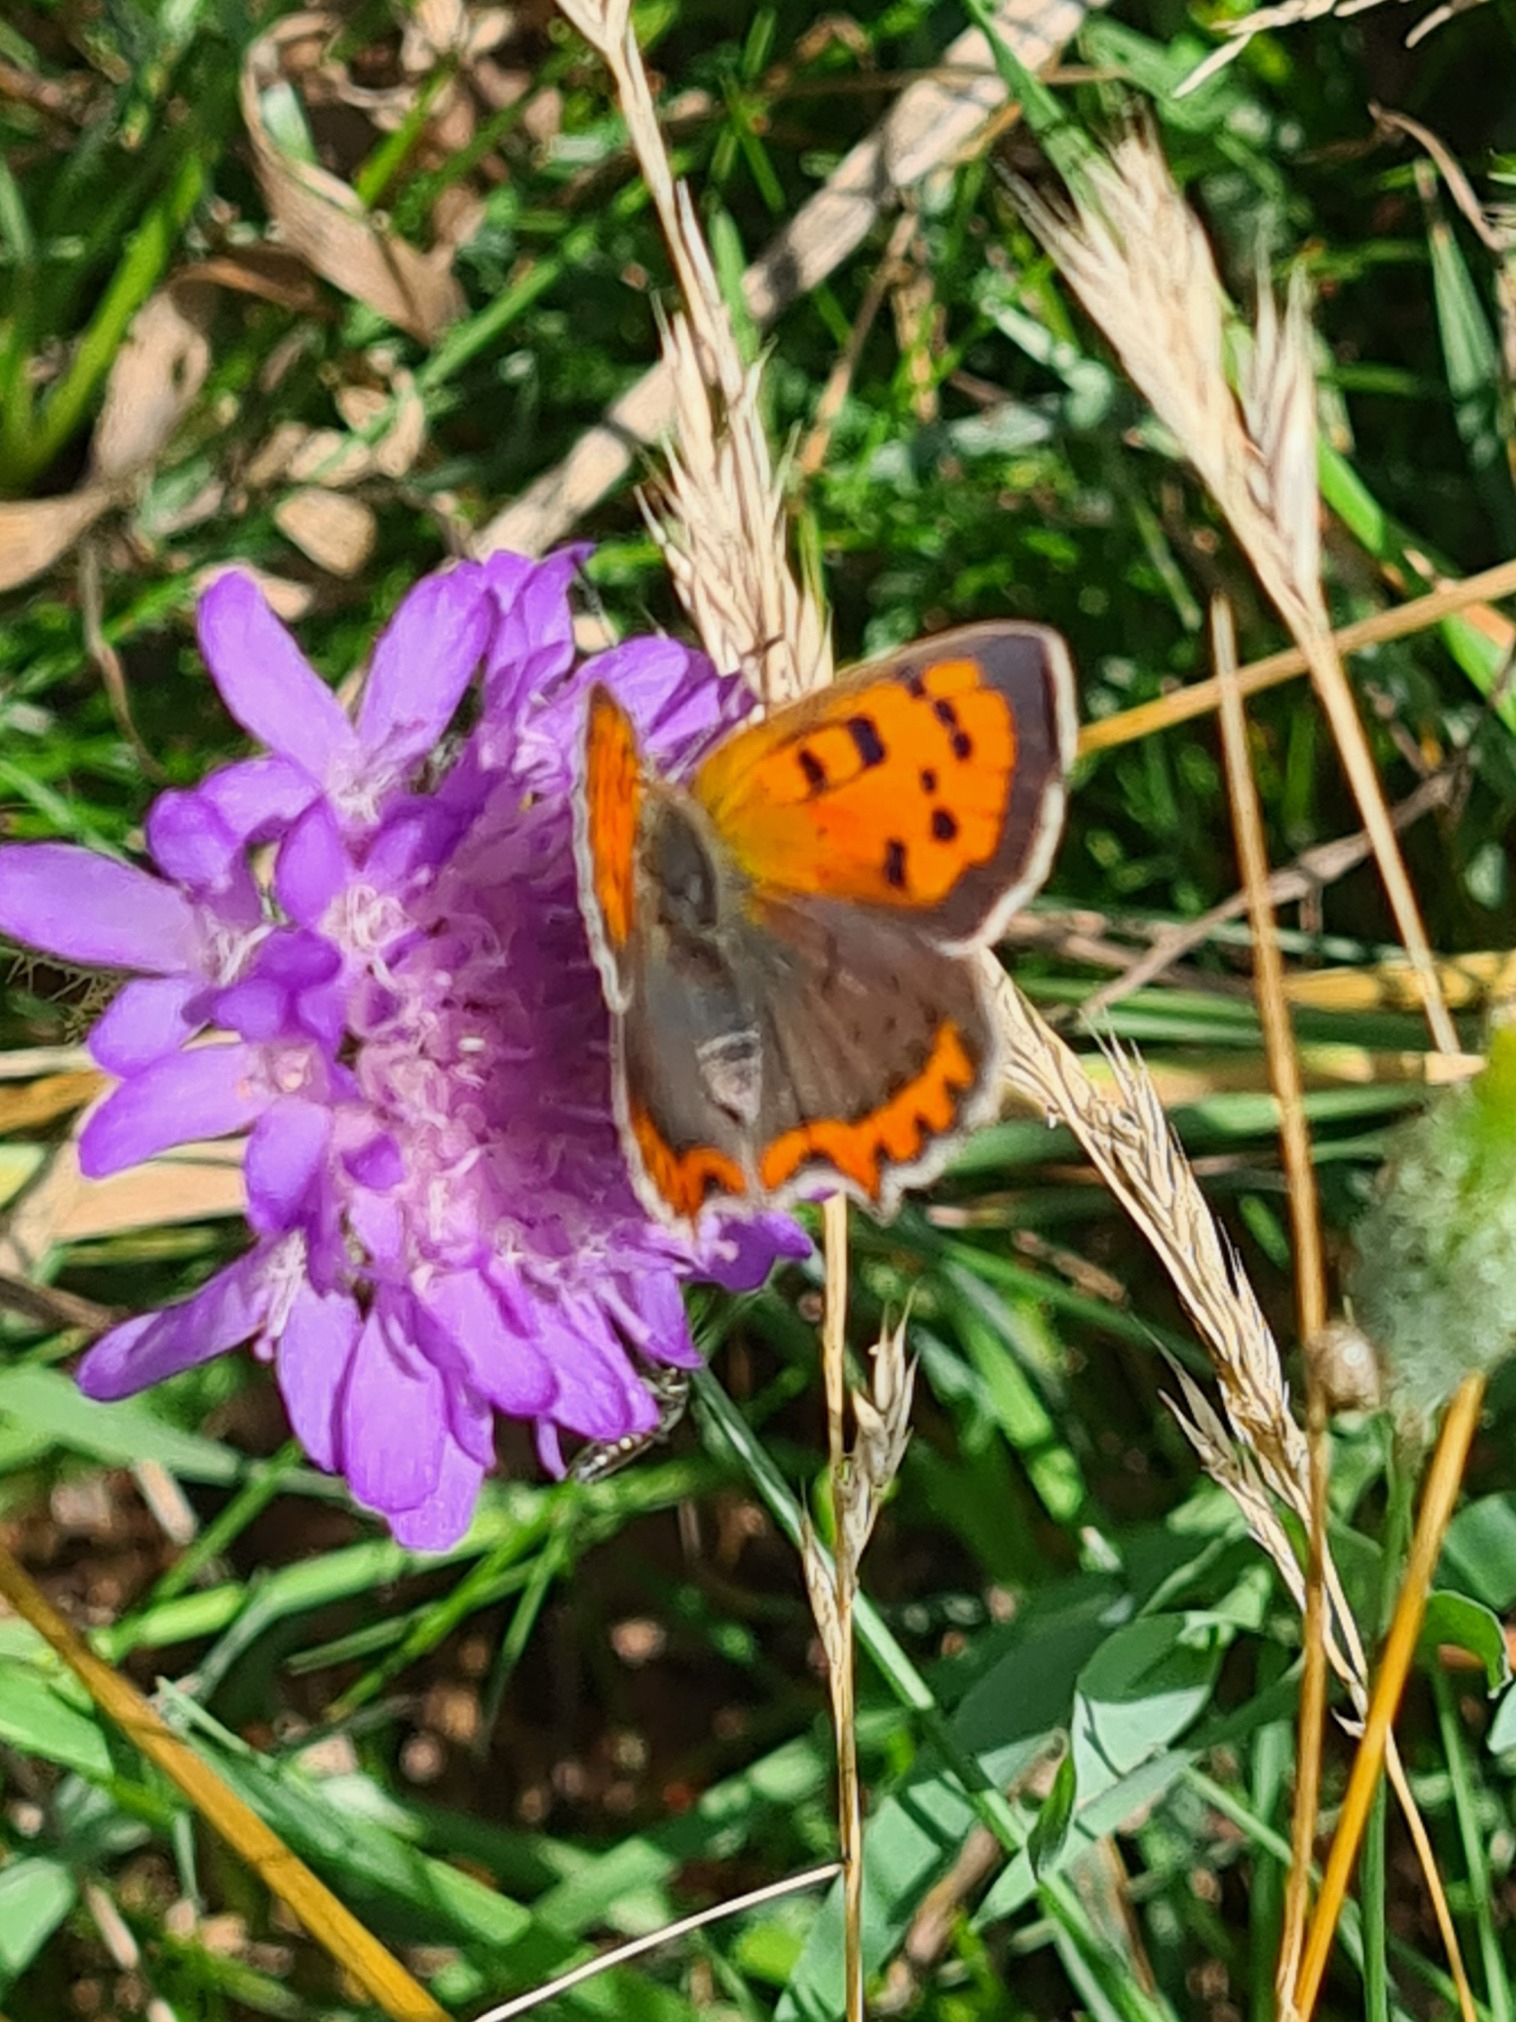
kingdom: Animalia
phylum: Arthropoda
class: Insecta
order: Lepidoptera
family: Lycaenidae
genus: Lycaena
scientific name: Lycaena phlaeas
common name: Lille ildfugl
